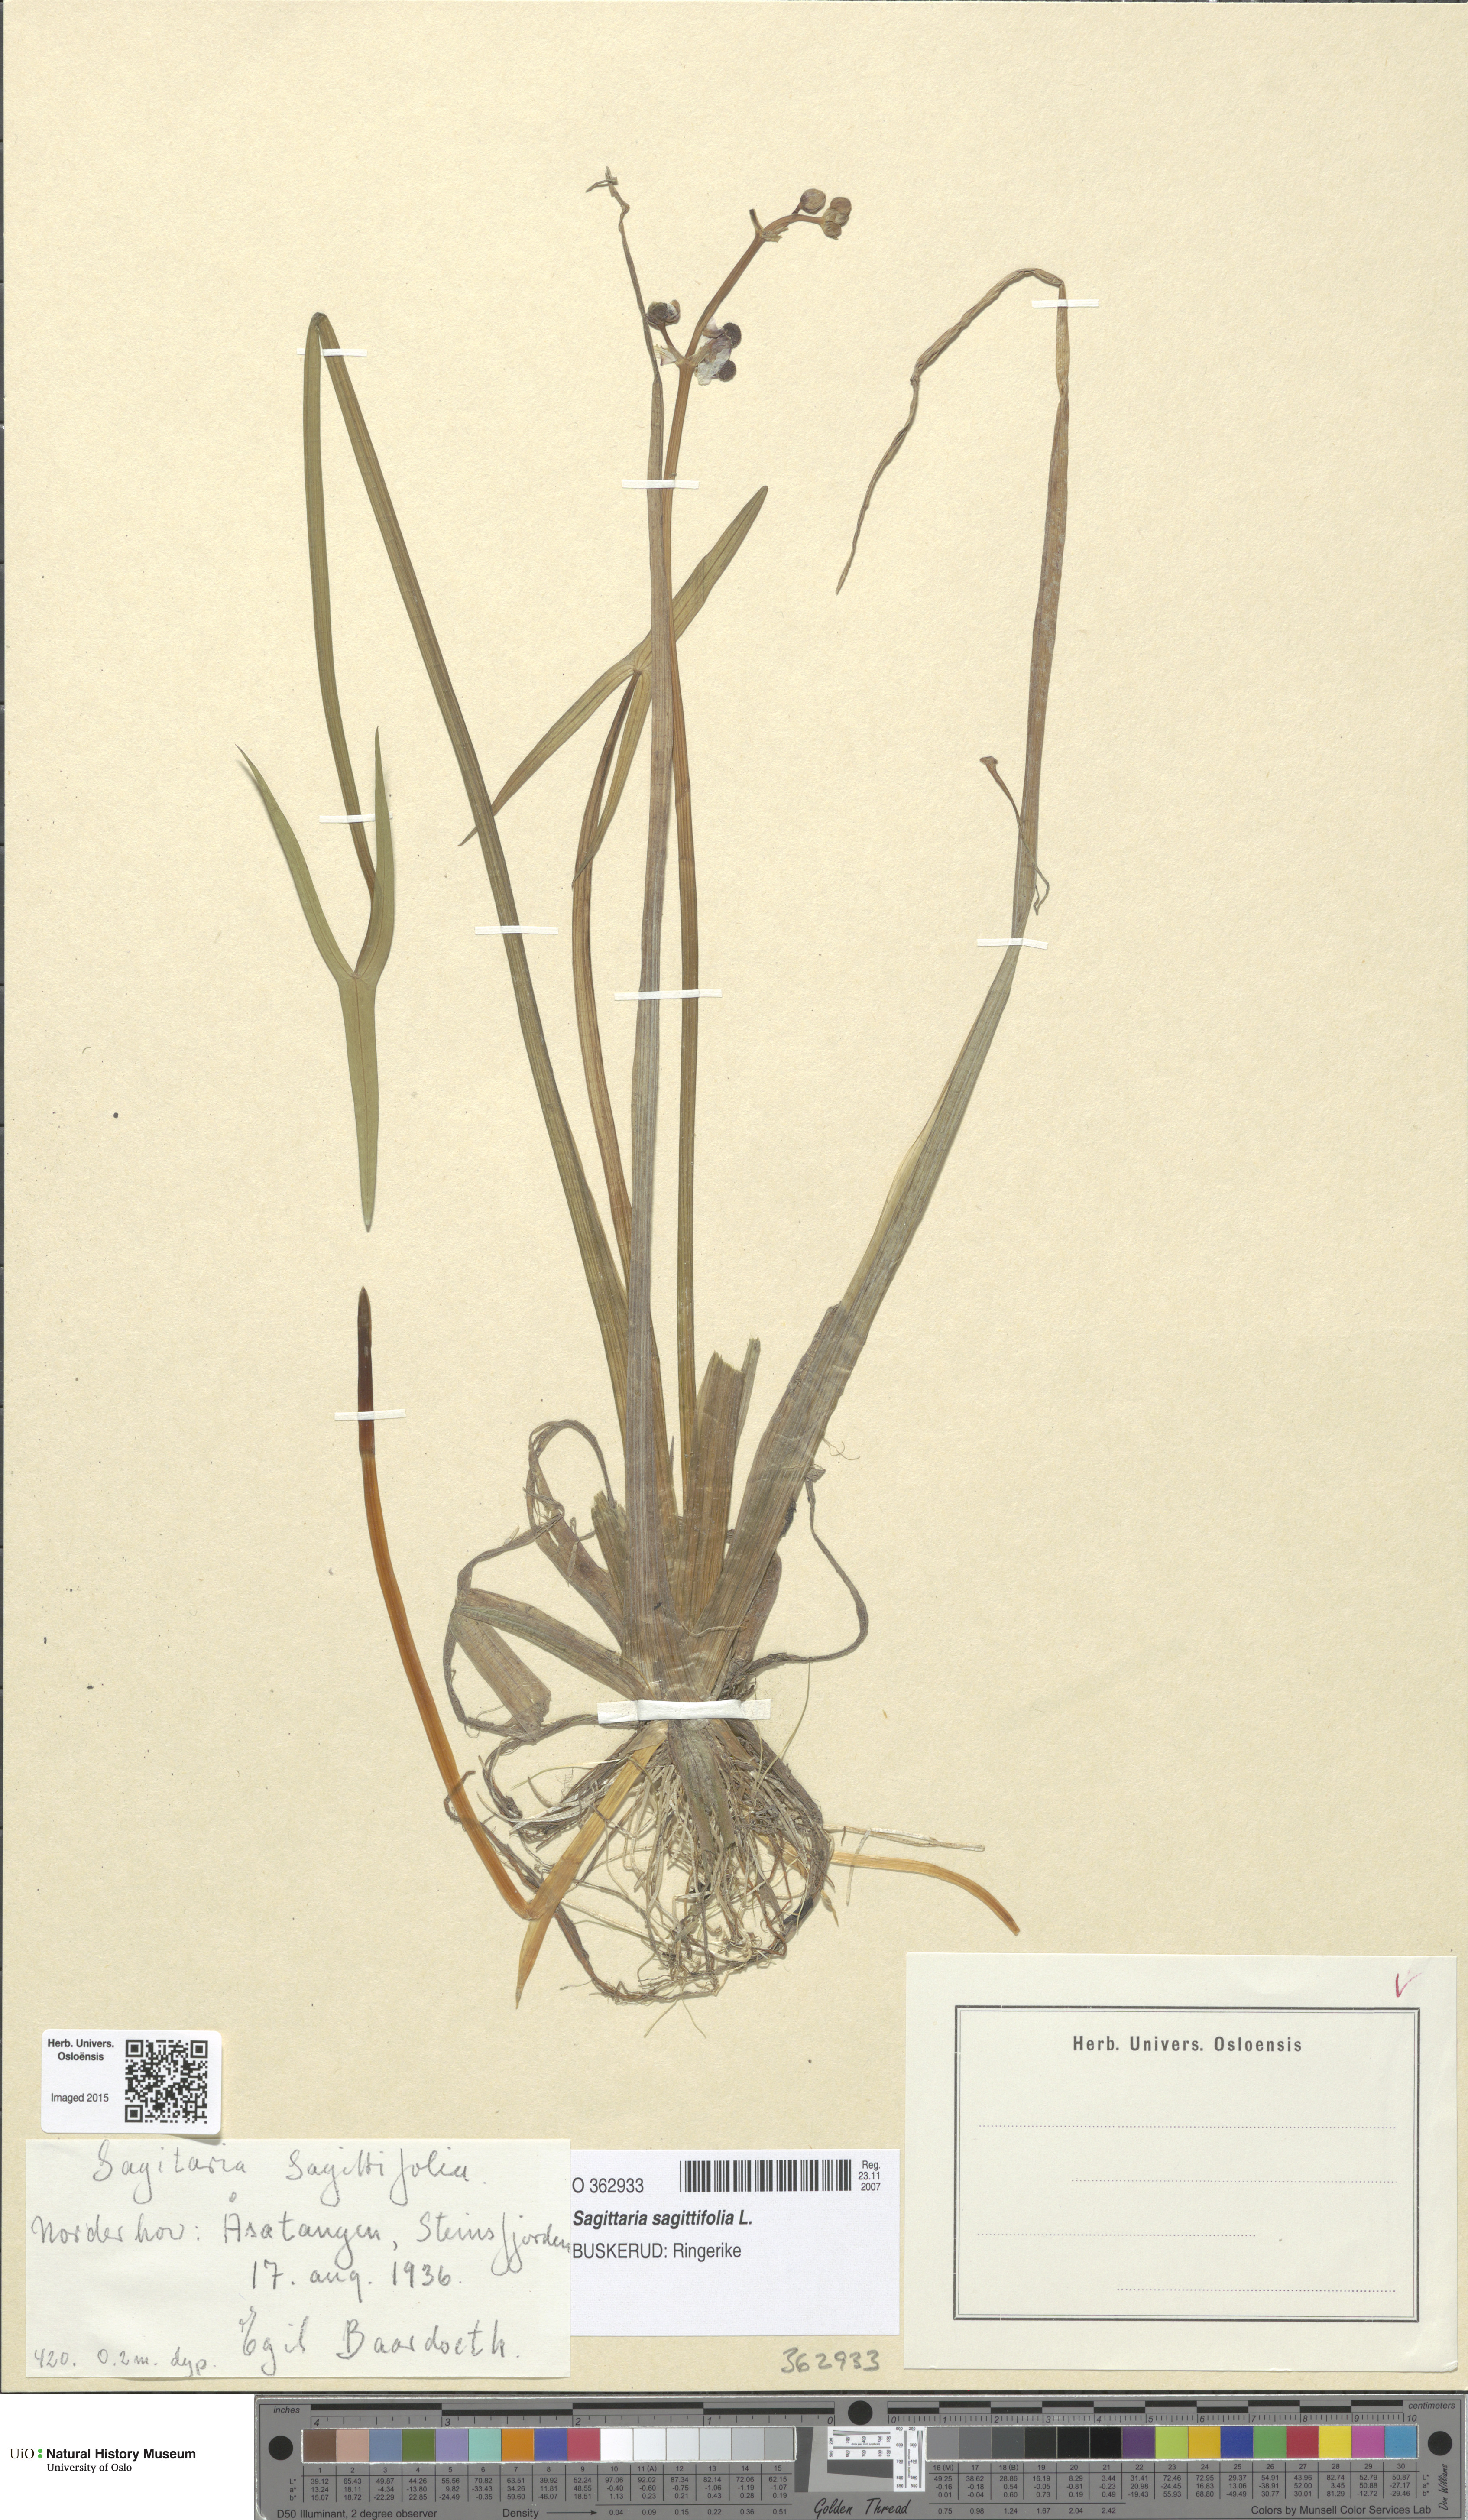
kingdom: Plantae
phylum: Tracheophyta
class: Liliopsida
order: Alismatales
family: Alismataceae
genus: Sagittaria
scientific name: Sagittaria sagittifolia
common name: Arrowhead
